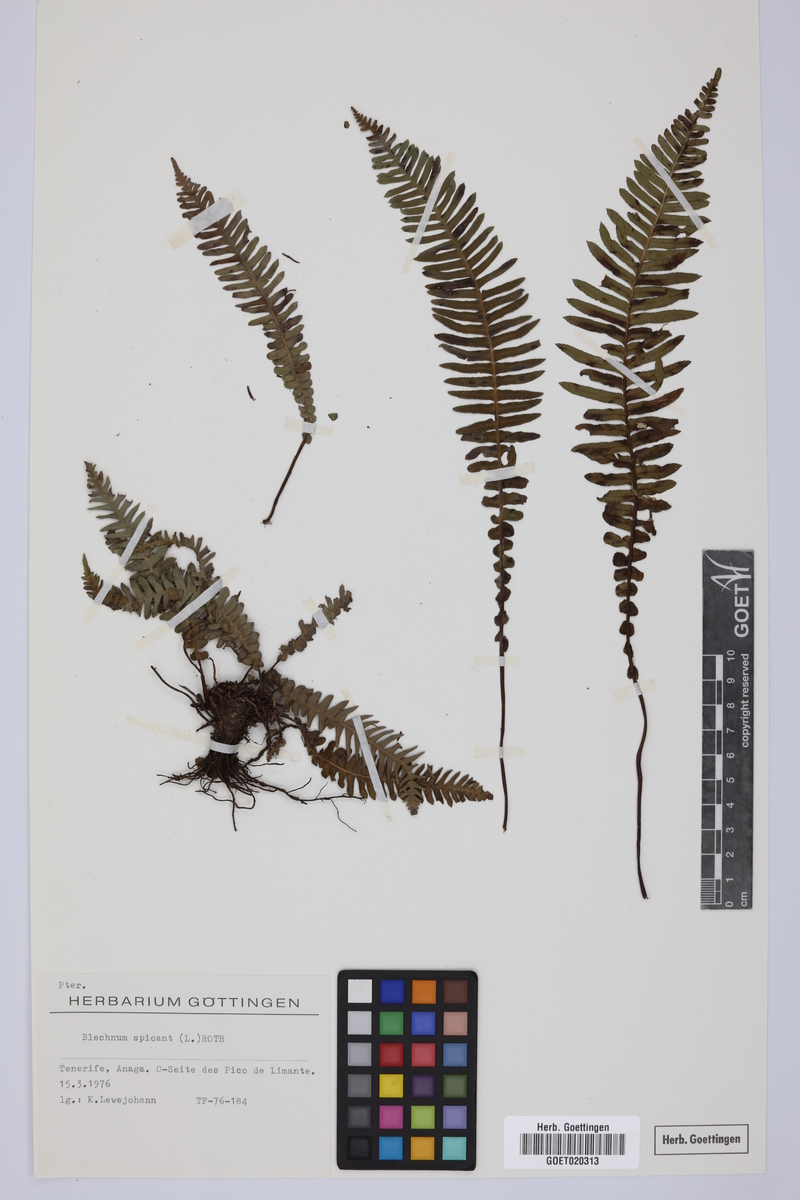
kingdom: Plantae
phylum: Tracheophyta
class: Polypodiopsida
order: Polypodiales
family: Blechnaceae
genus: Struthiopteris
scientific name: Struthiopteris spicant
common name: Deer fern
